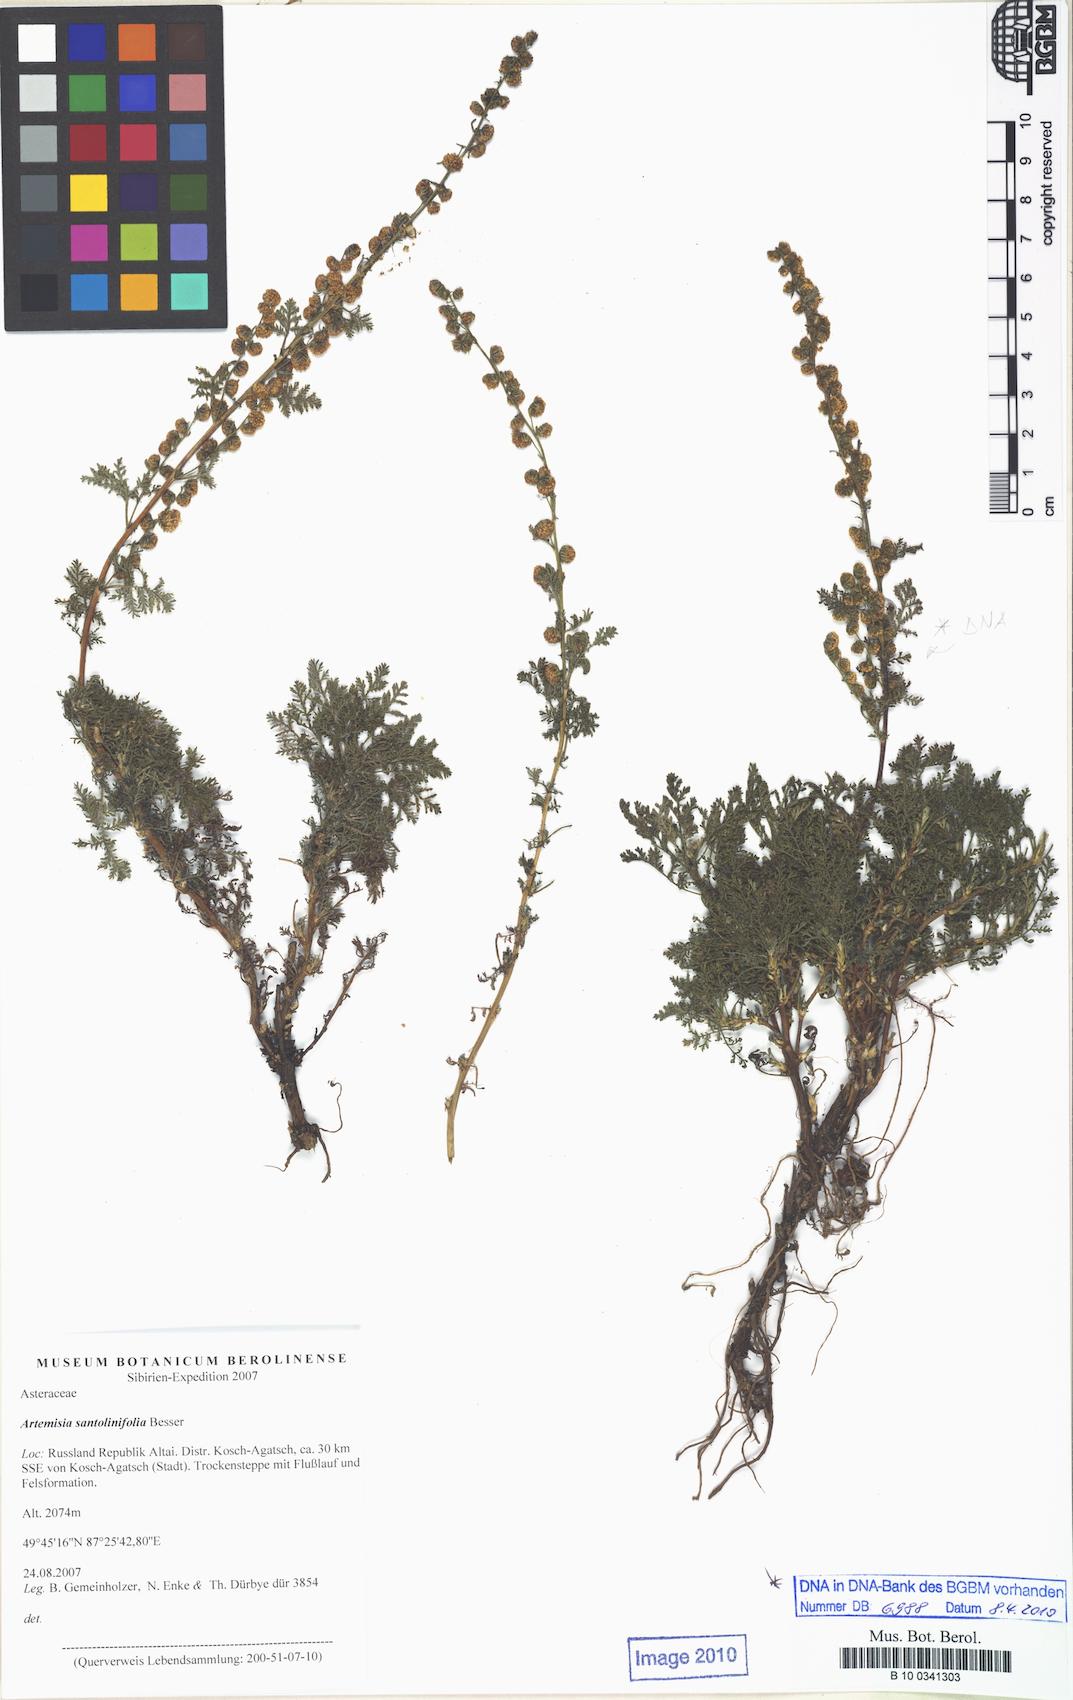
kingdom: Plantae
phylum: Tracheophyta
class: Magnoliopsida
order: Asterales
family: Asteraceae
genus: Artemisia
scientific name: Artemisia gmelinii
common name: Gmelin's wormwood
